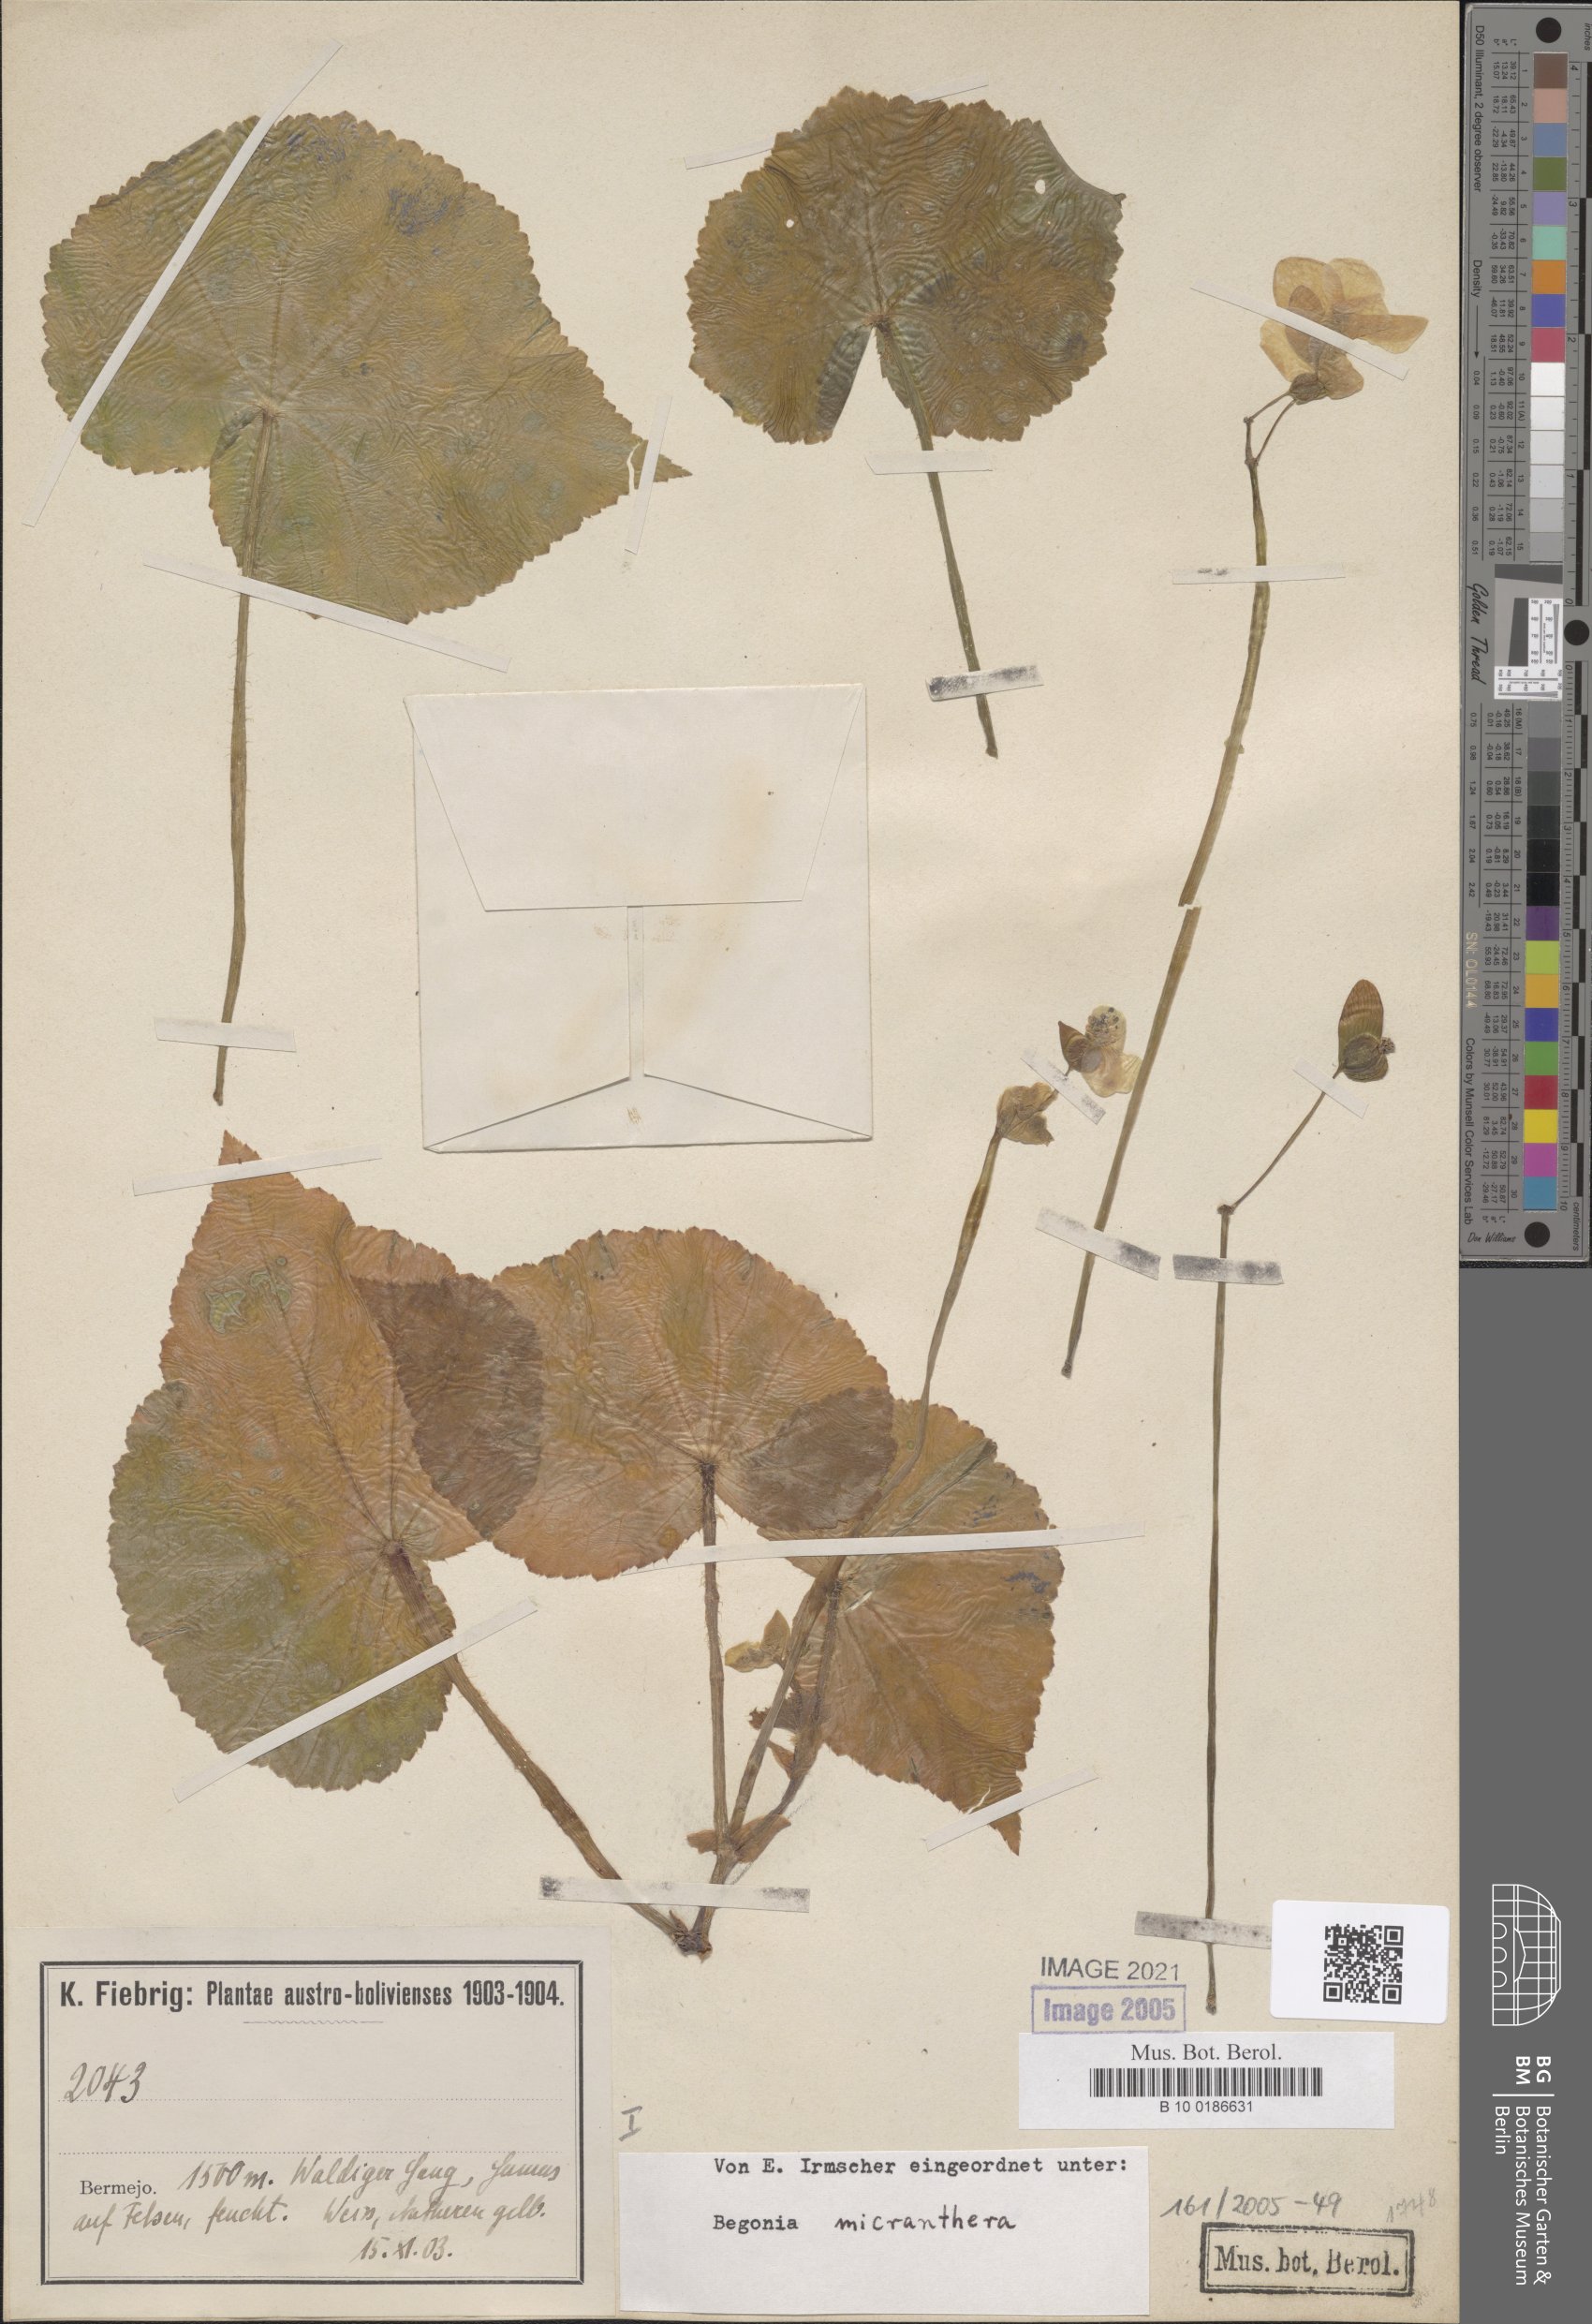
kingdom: Plantae
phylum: Tracheophyta
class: Magnoliopsida
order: Cucurbitales
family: Begoniaceae
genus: Begonia
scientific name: Begonia micranthera
